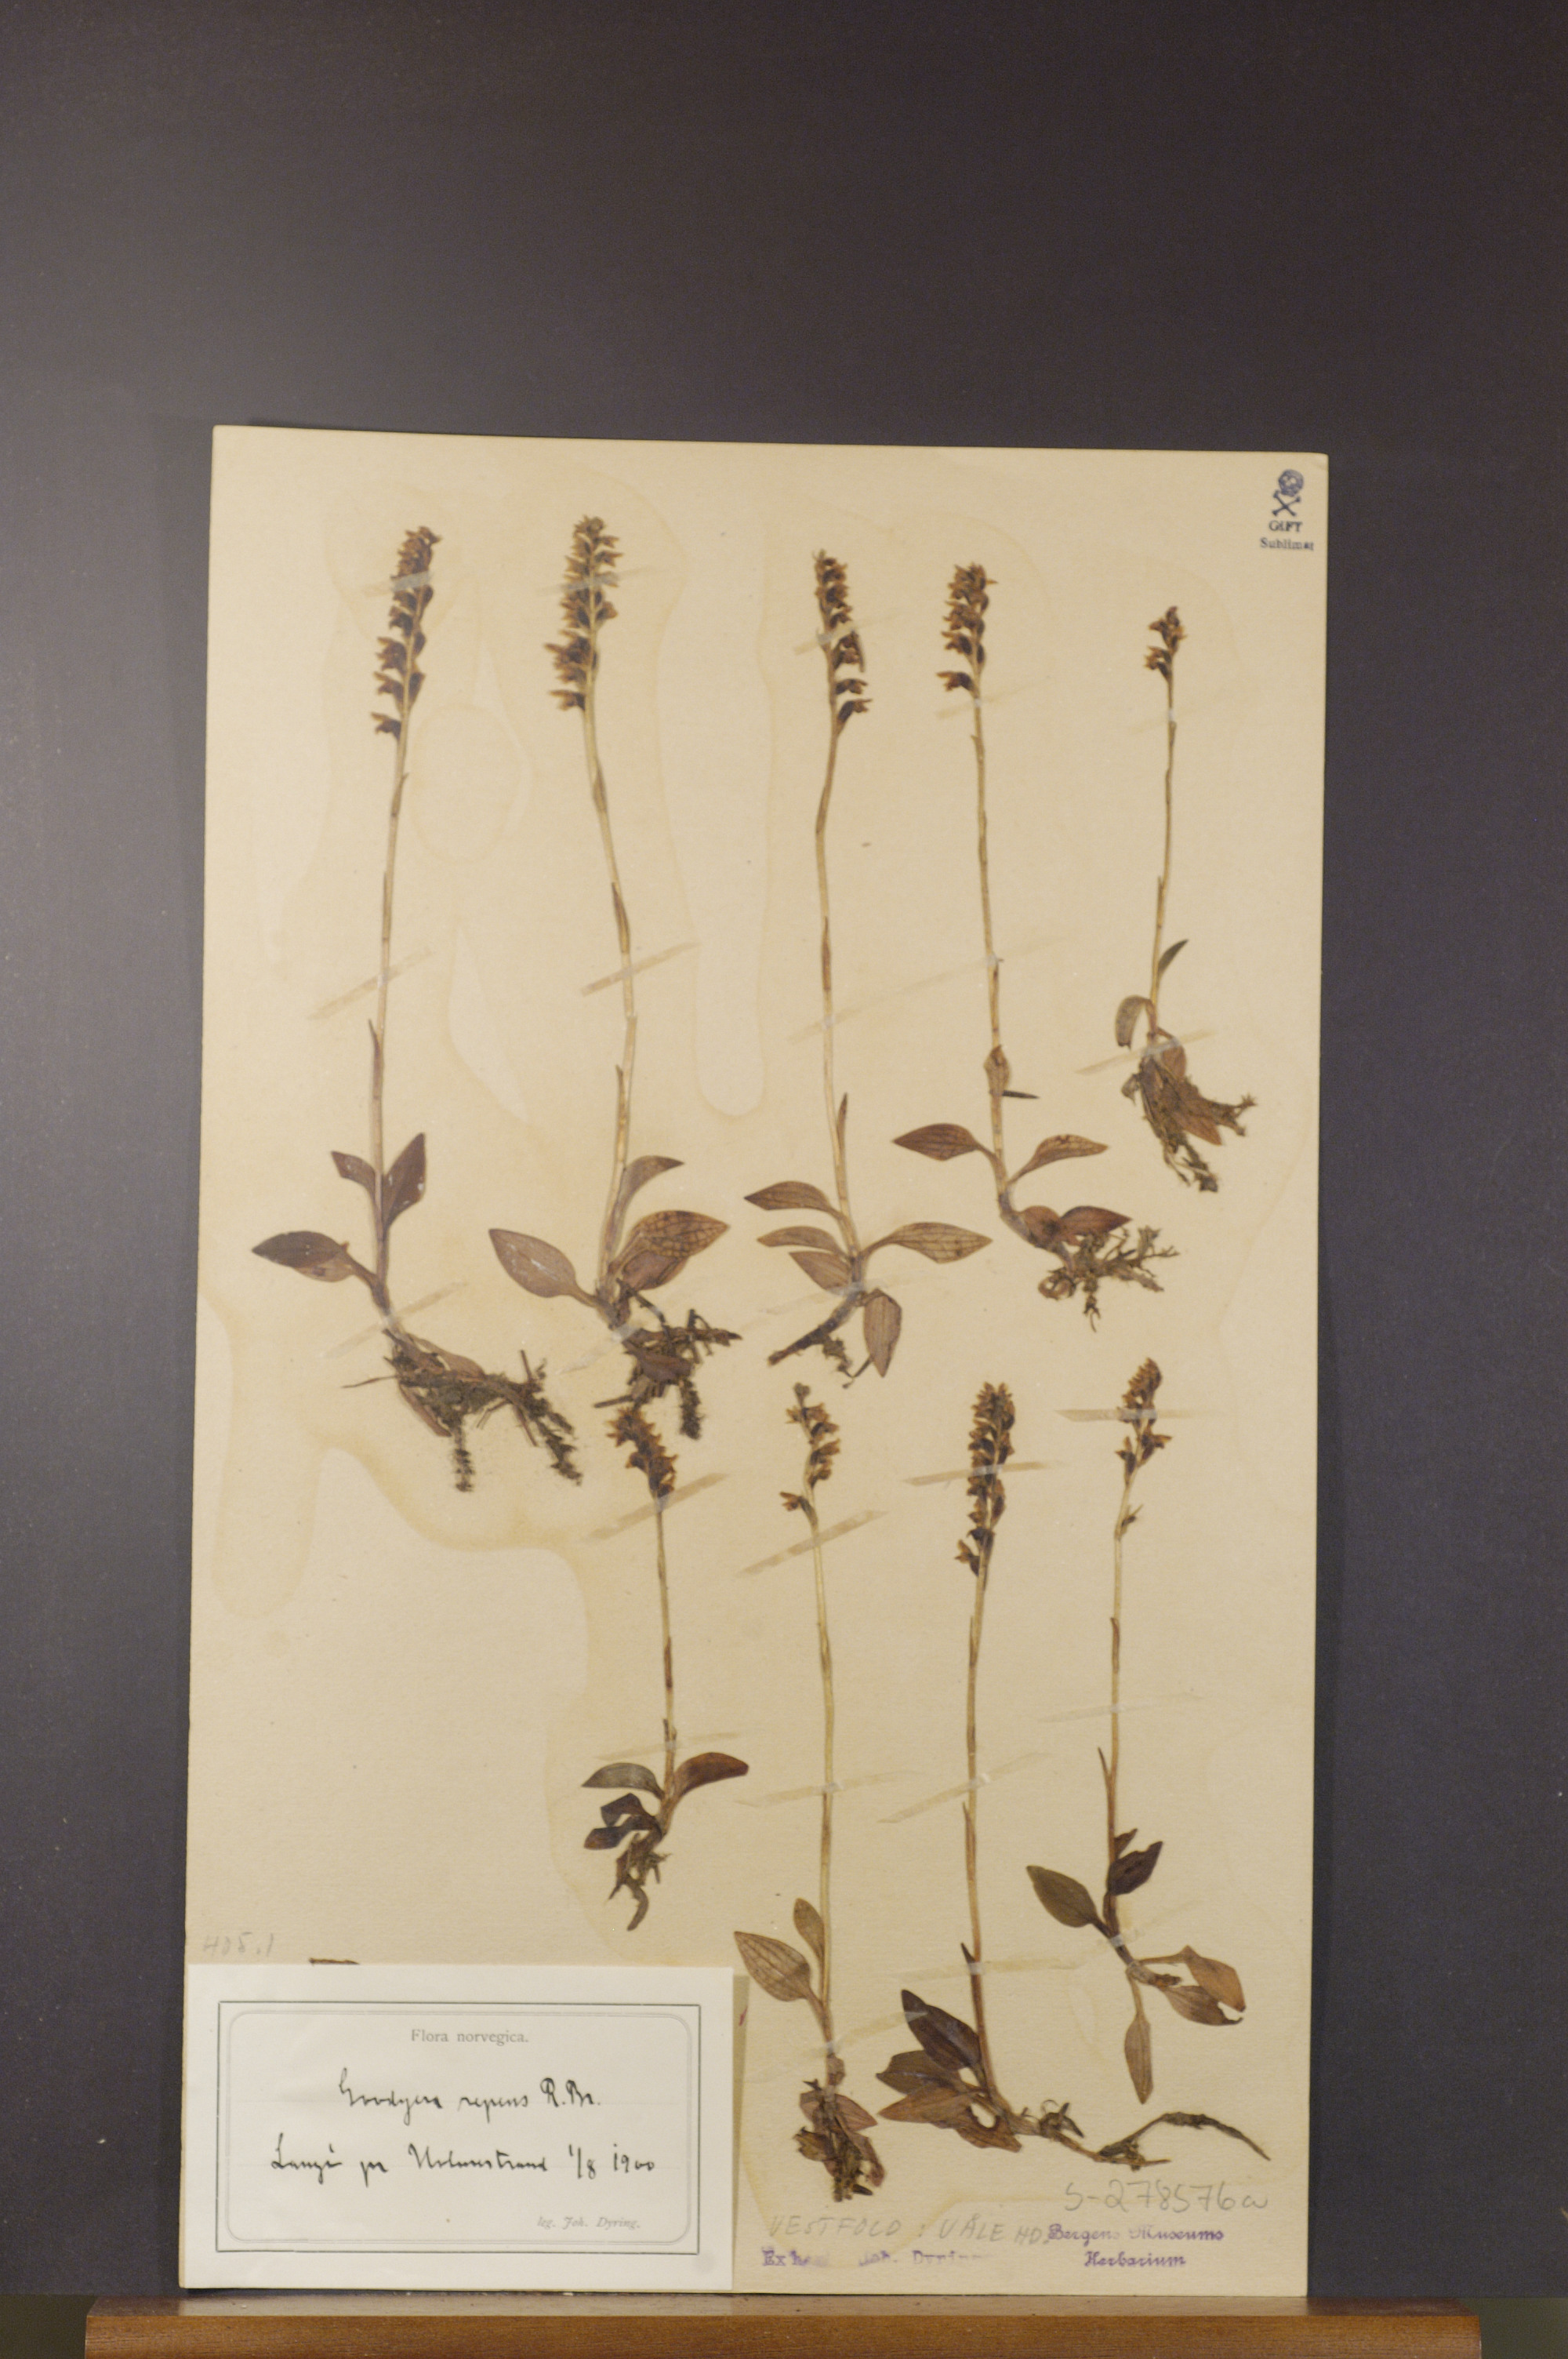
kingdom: Plantae
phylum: Tracheophyta
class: Liliopsida
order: Asparagales
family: Orchidaceae
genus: Goodyera
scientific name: Goodyera repens
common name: Creeping lady's-tresses
